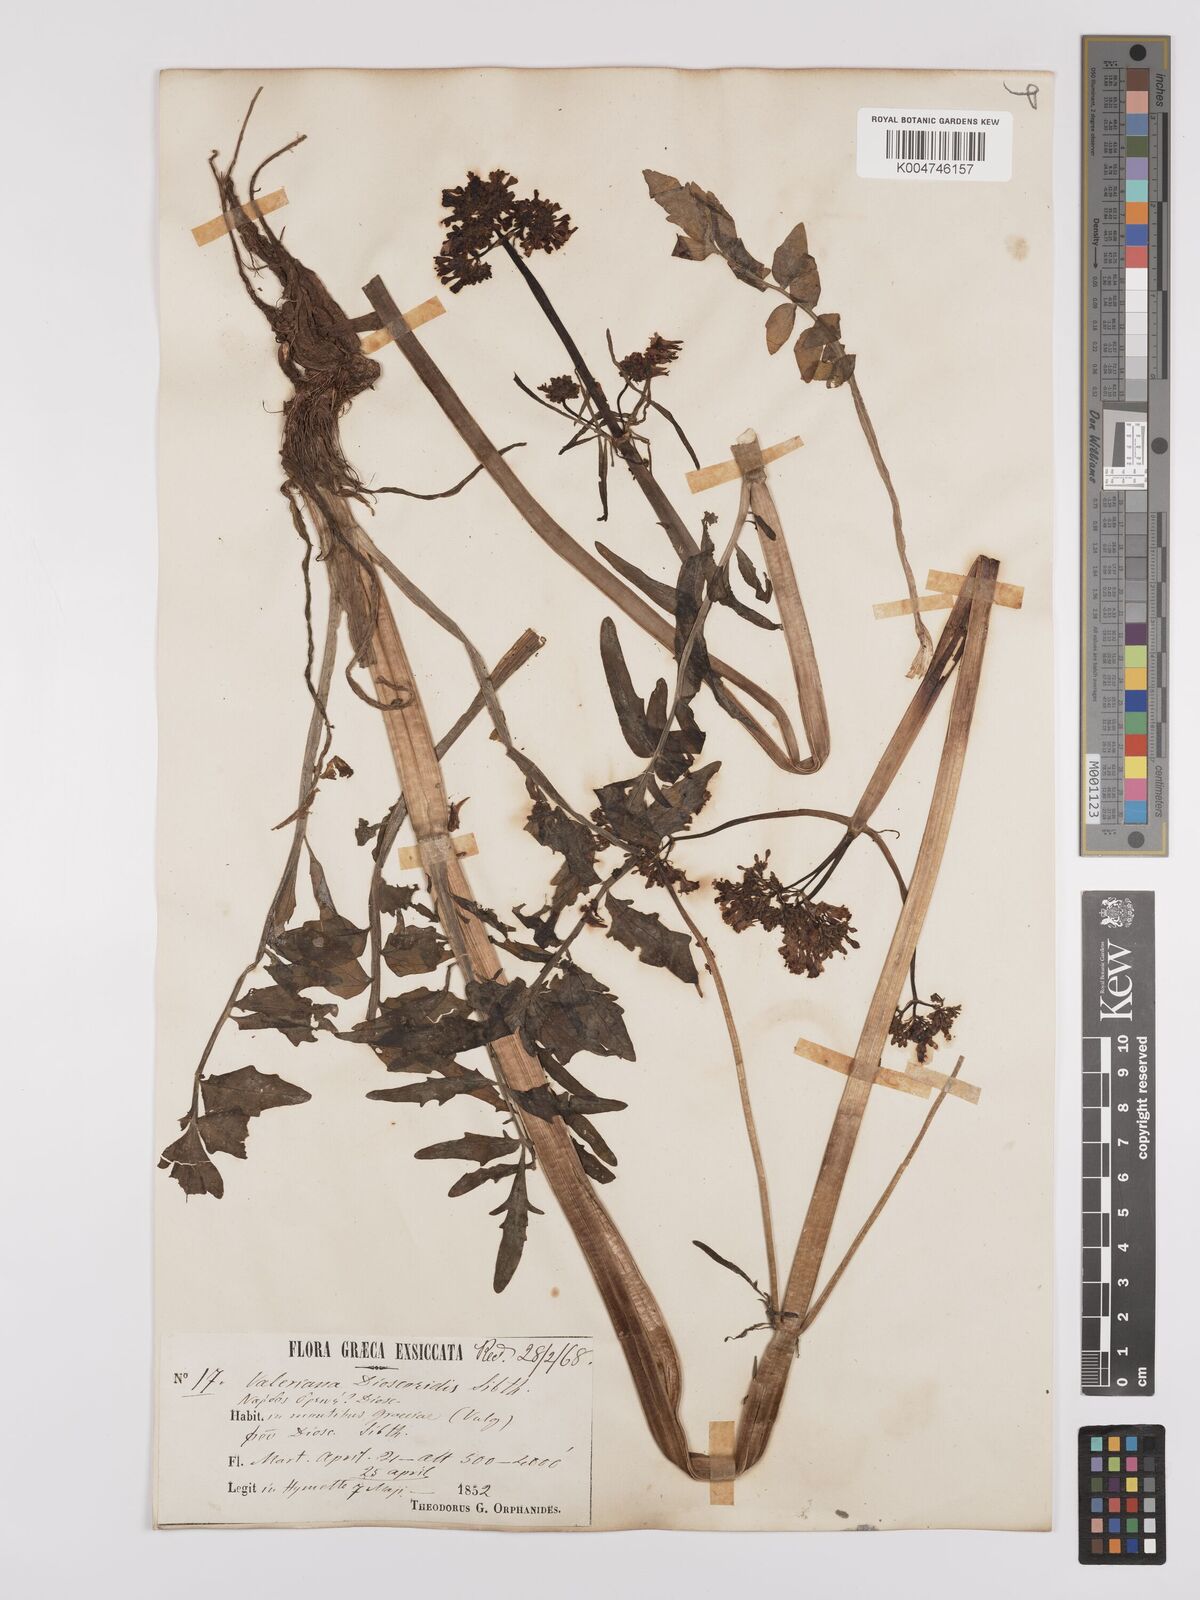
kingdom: Plantae
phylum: Tracheophyta
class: Magnoliopsida
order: Dipsacales
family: Caprifoliaceae
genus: Valeriana
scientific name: Valeriana dioscoridis
